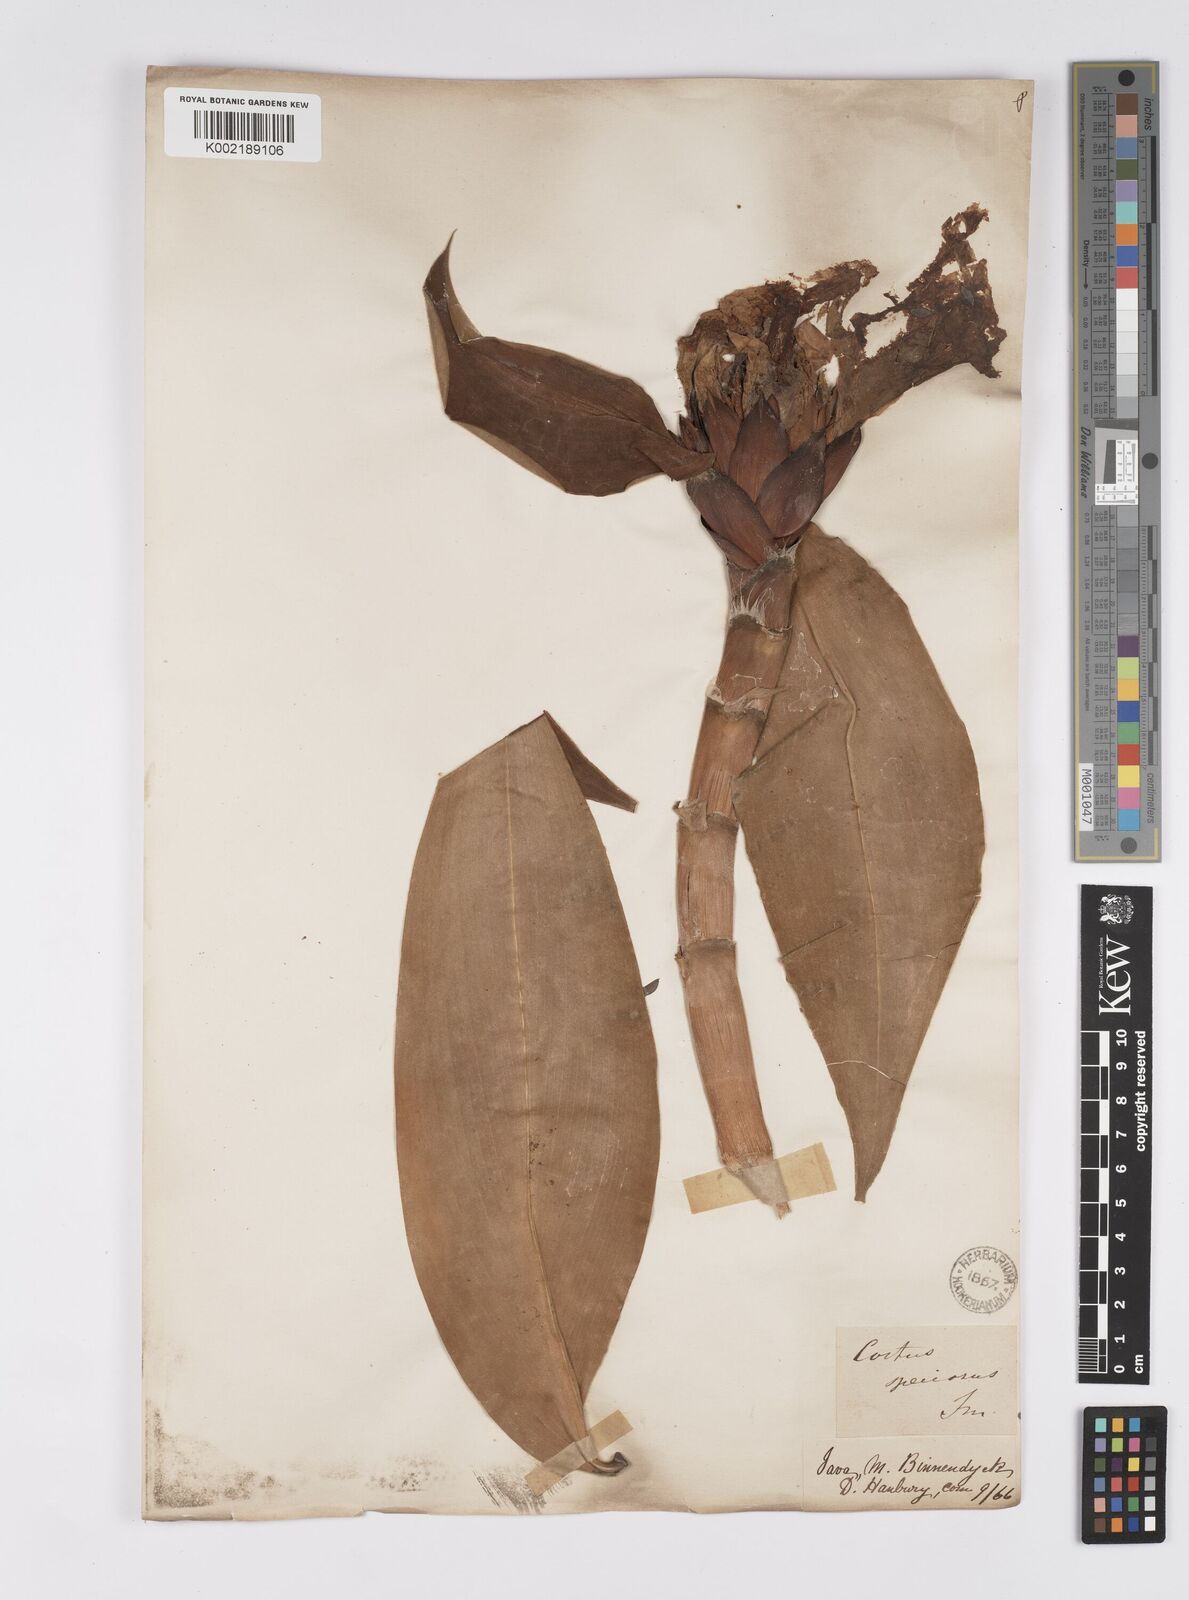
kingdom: Plantae
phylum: Tracheophyta
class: Liliopsida
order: Zingiberales
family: Costaceae
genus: Hellenia
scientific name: Hellenia speciosa
